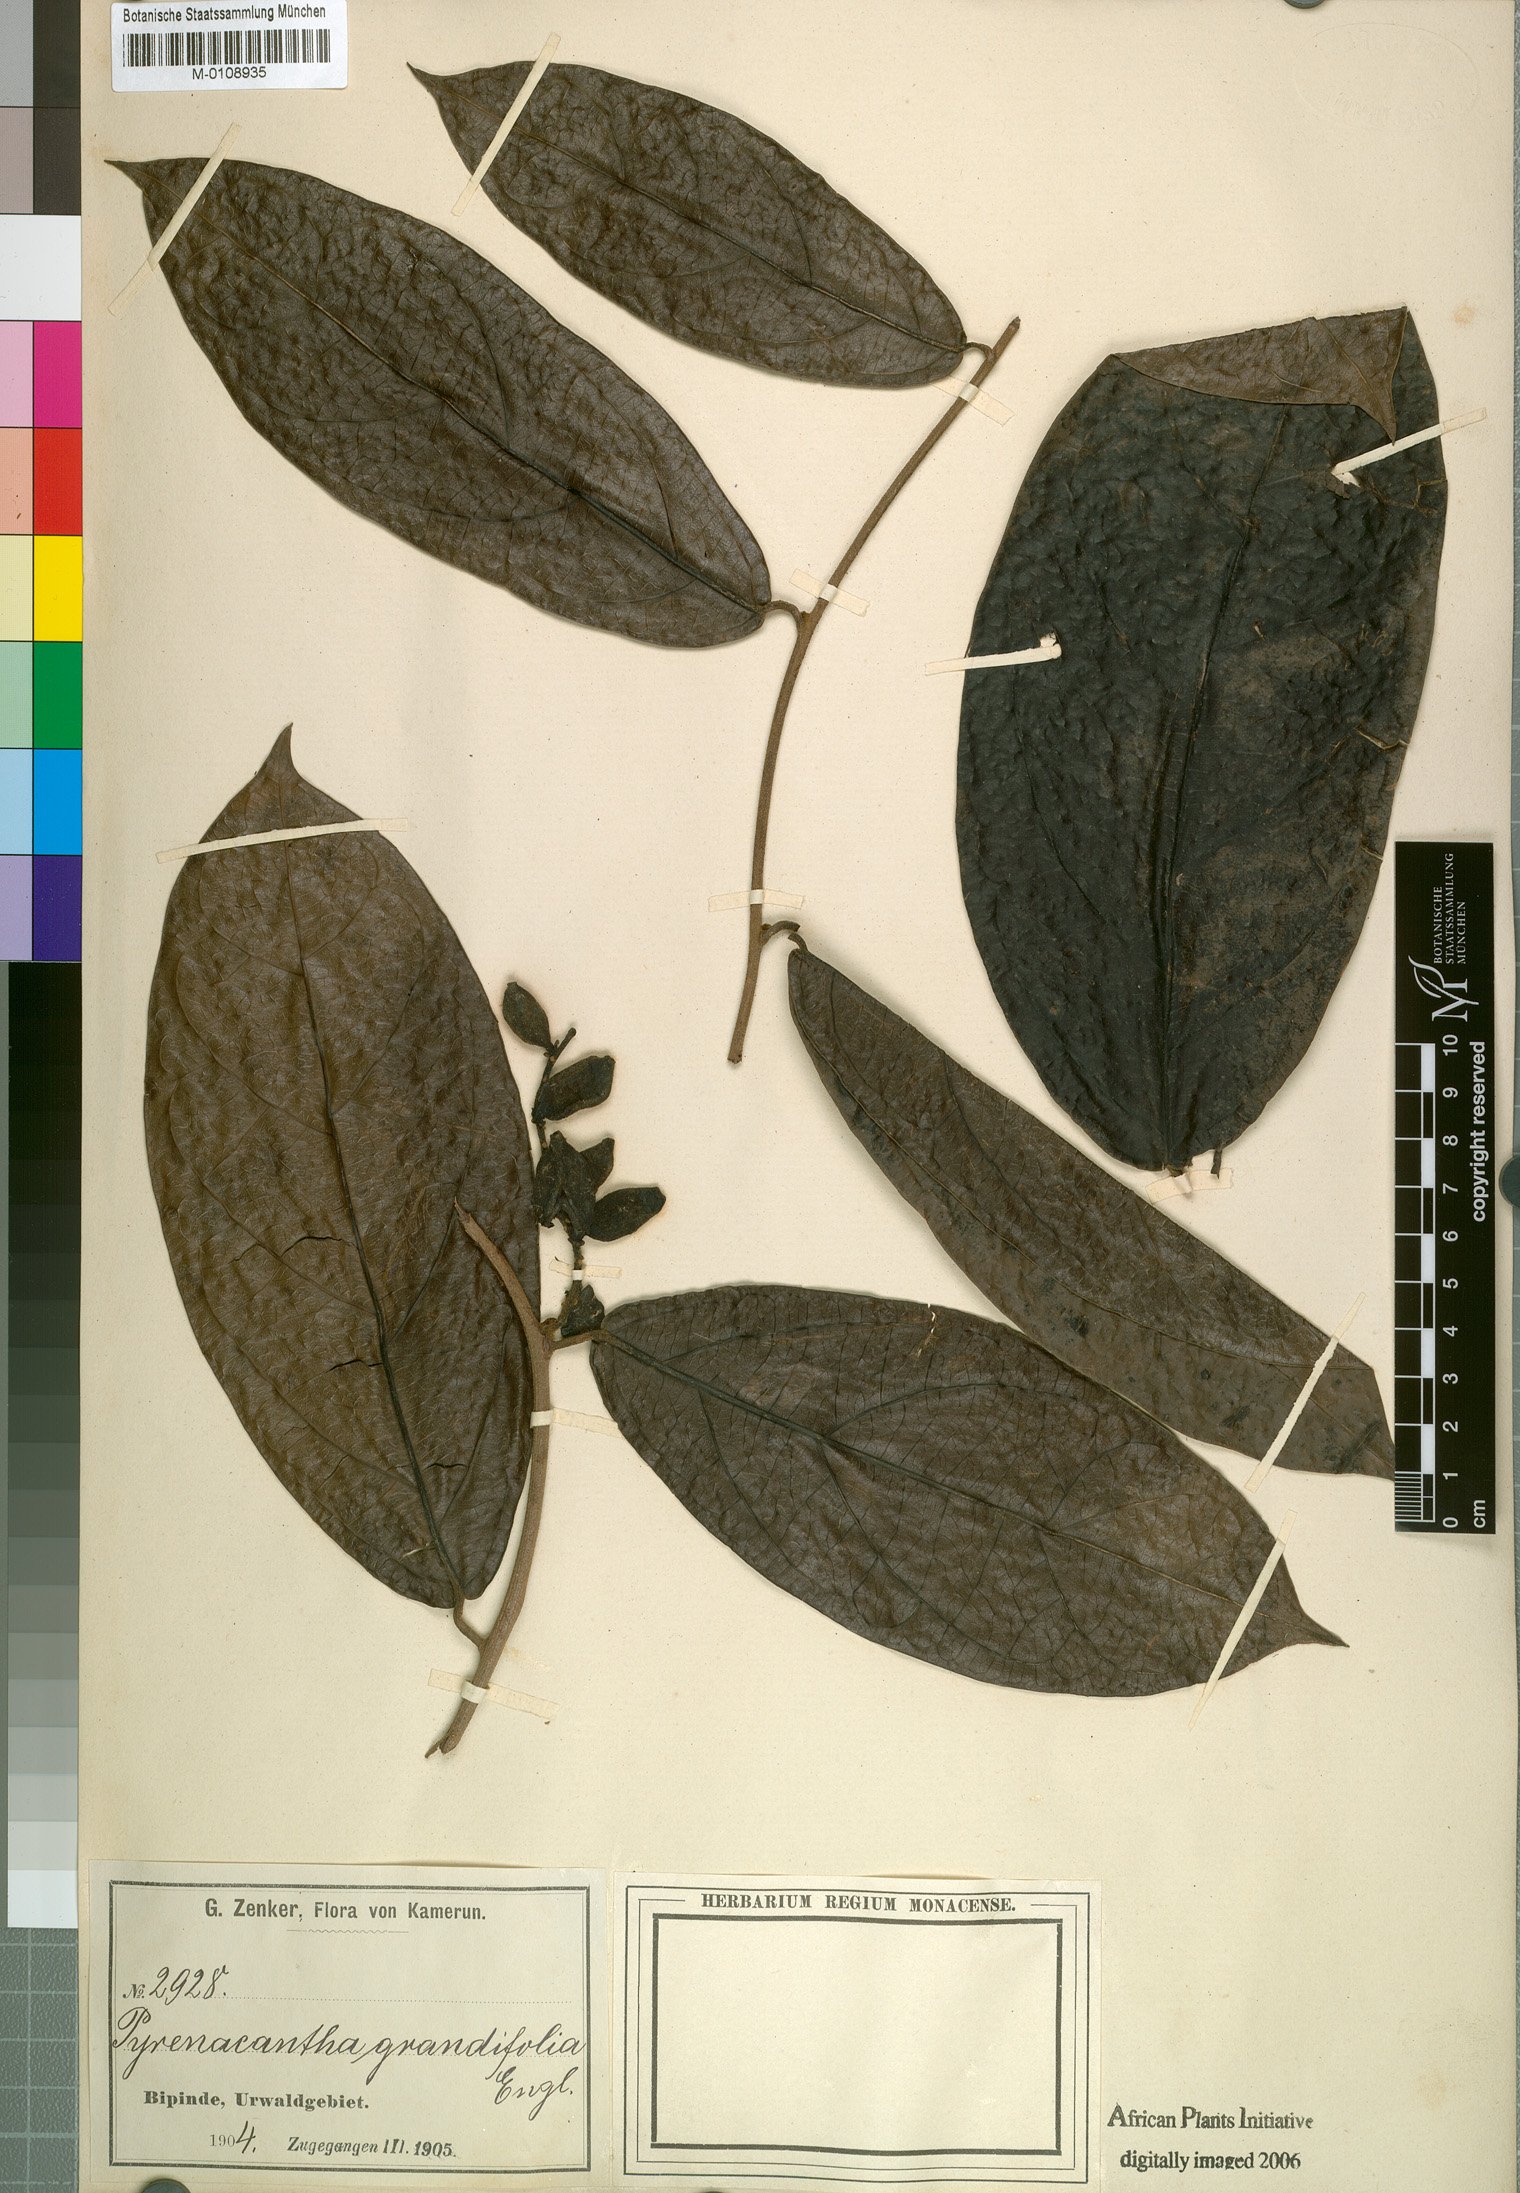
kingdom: Plantae
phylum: Tracheophyta
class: Magnoliopsida
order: Icacinales
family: Icacinaceae
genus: Pyrenacantha
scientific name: Pyrenacantha grandifolia
